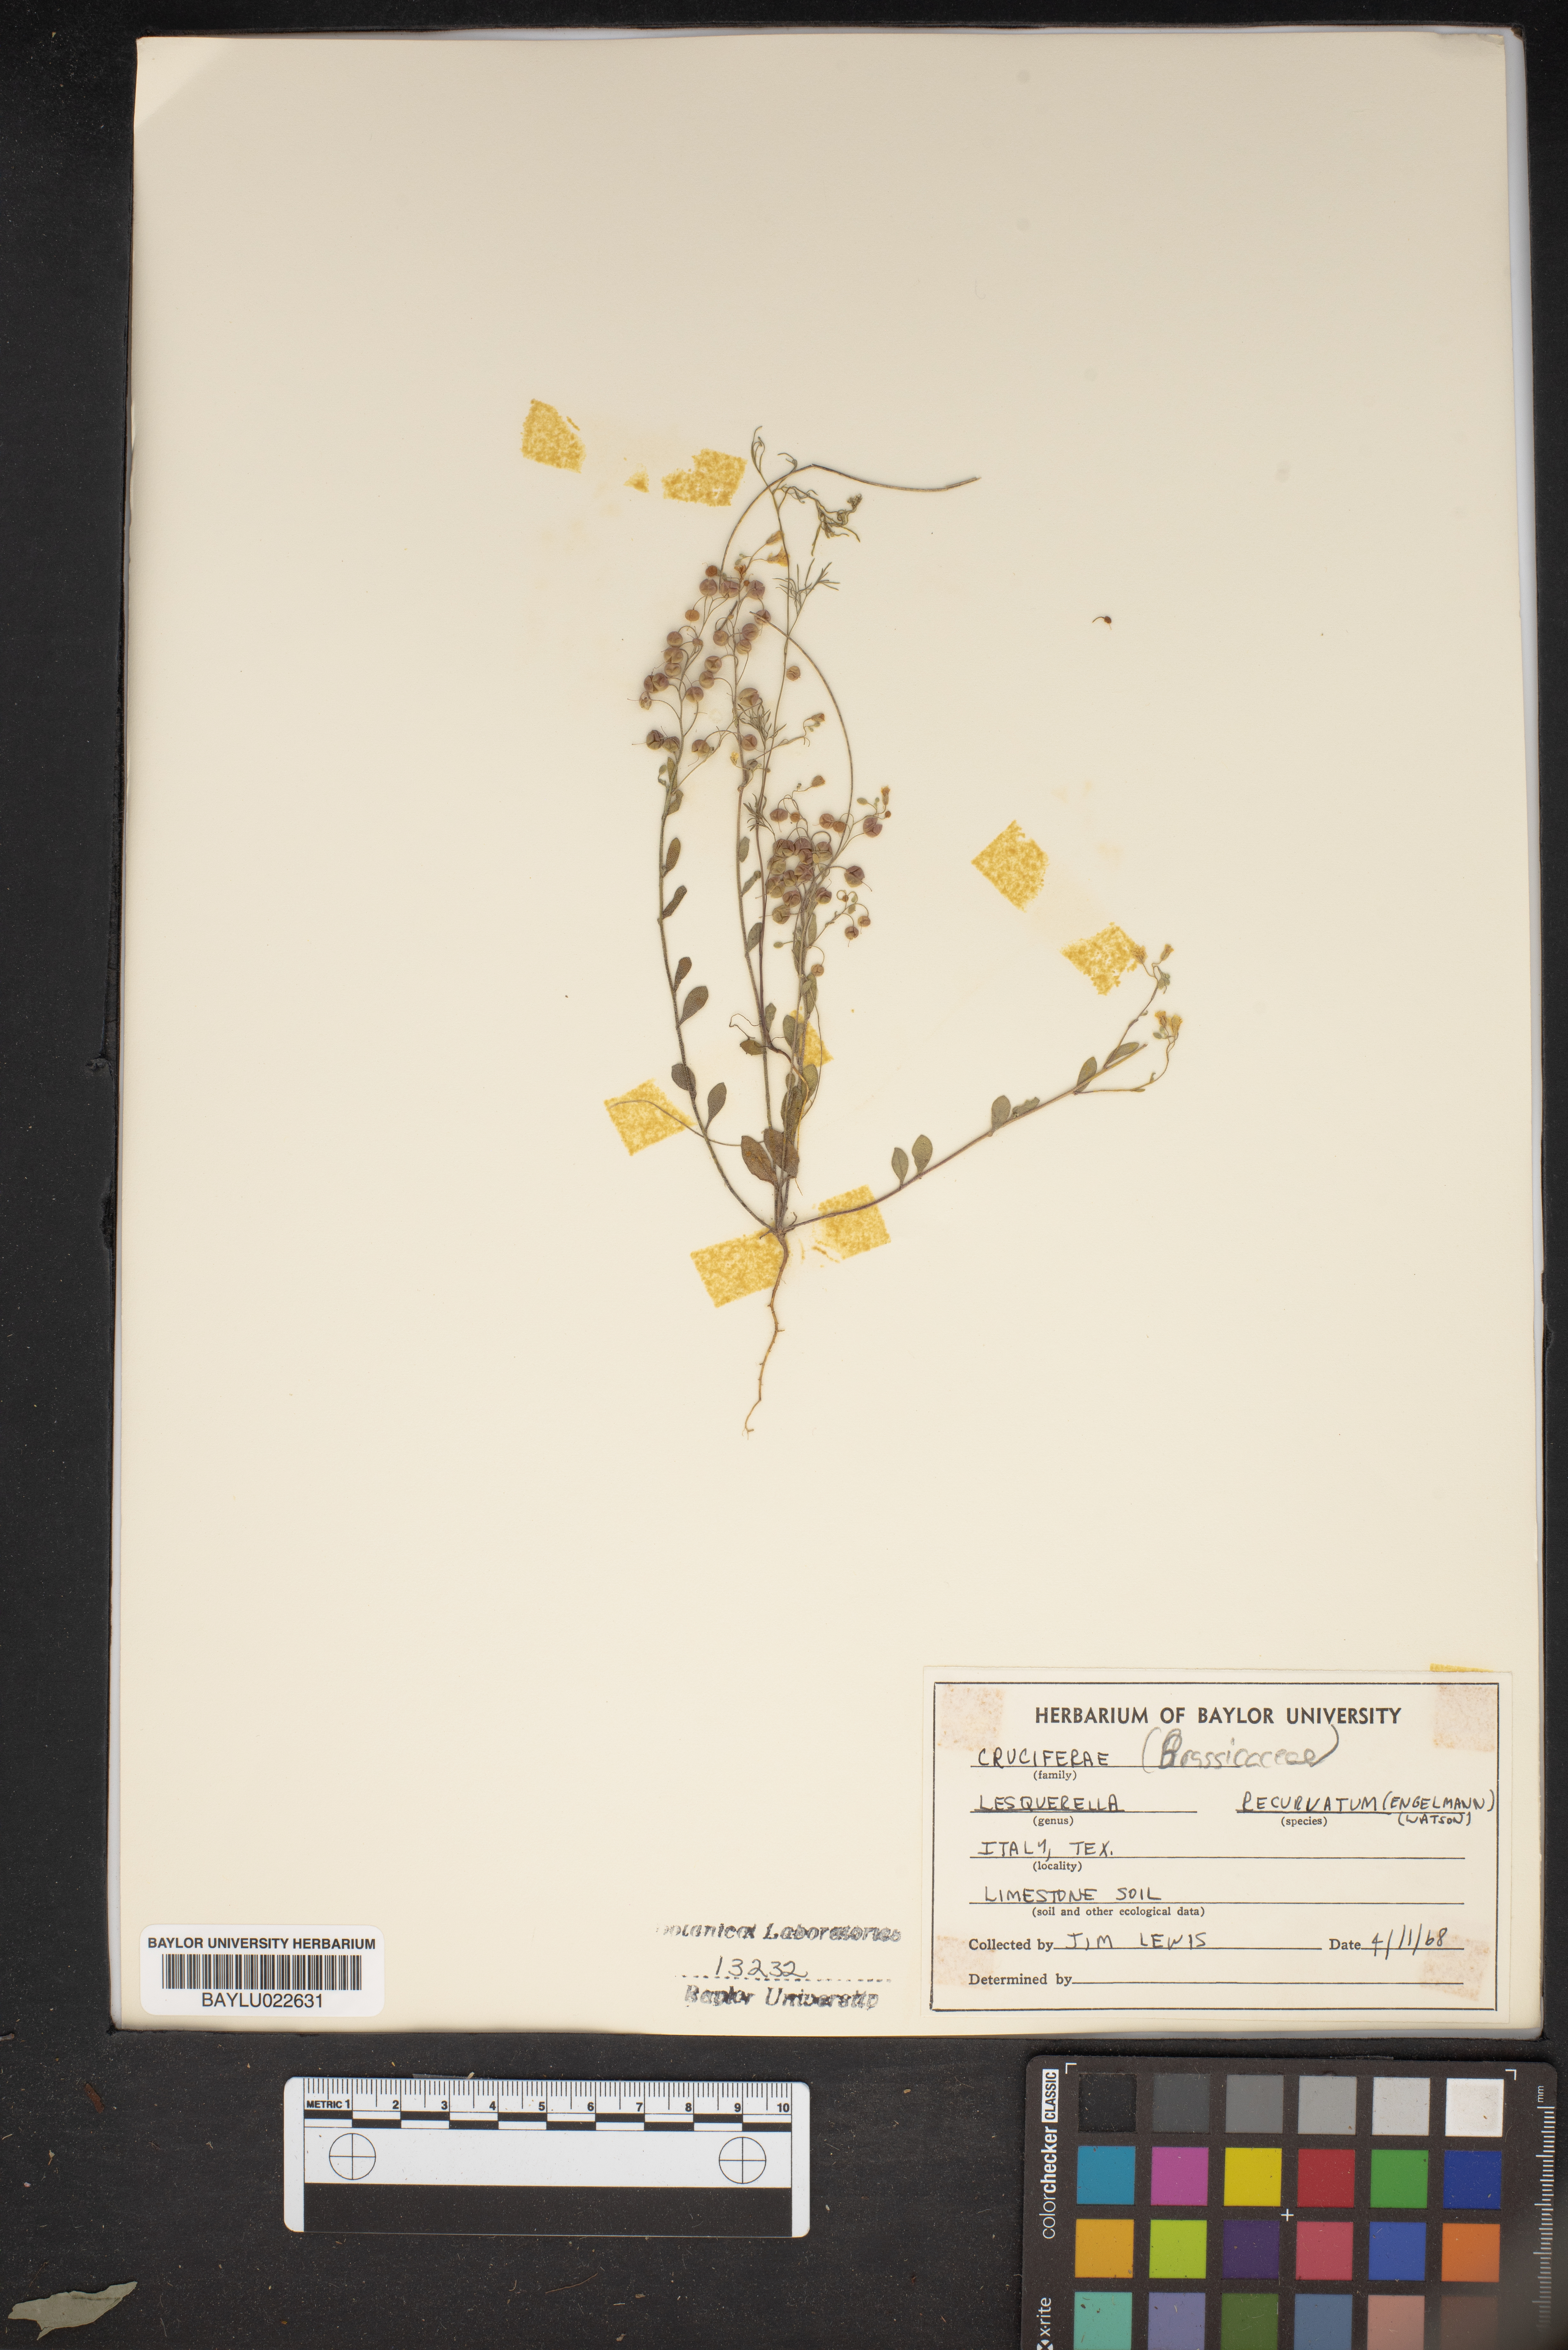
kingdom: Chromista
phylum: Cercozoa
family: Psammonobiotidae
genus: Lesquerella
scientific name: Lesquerella
